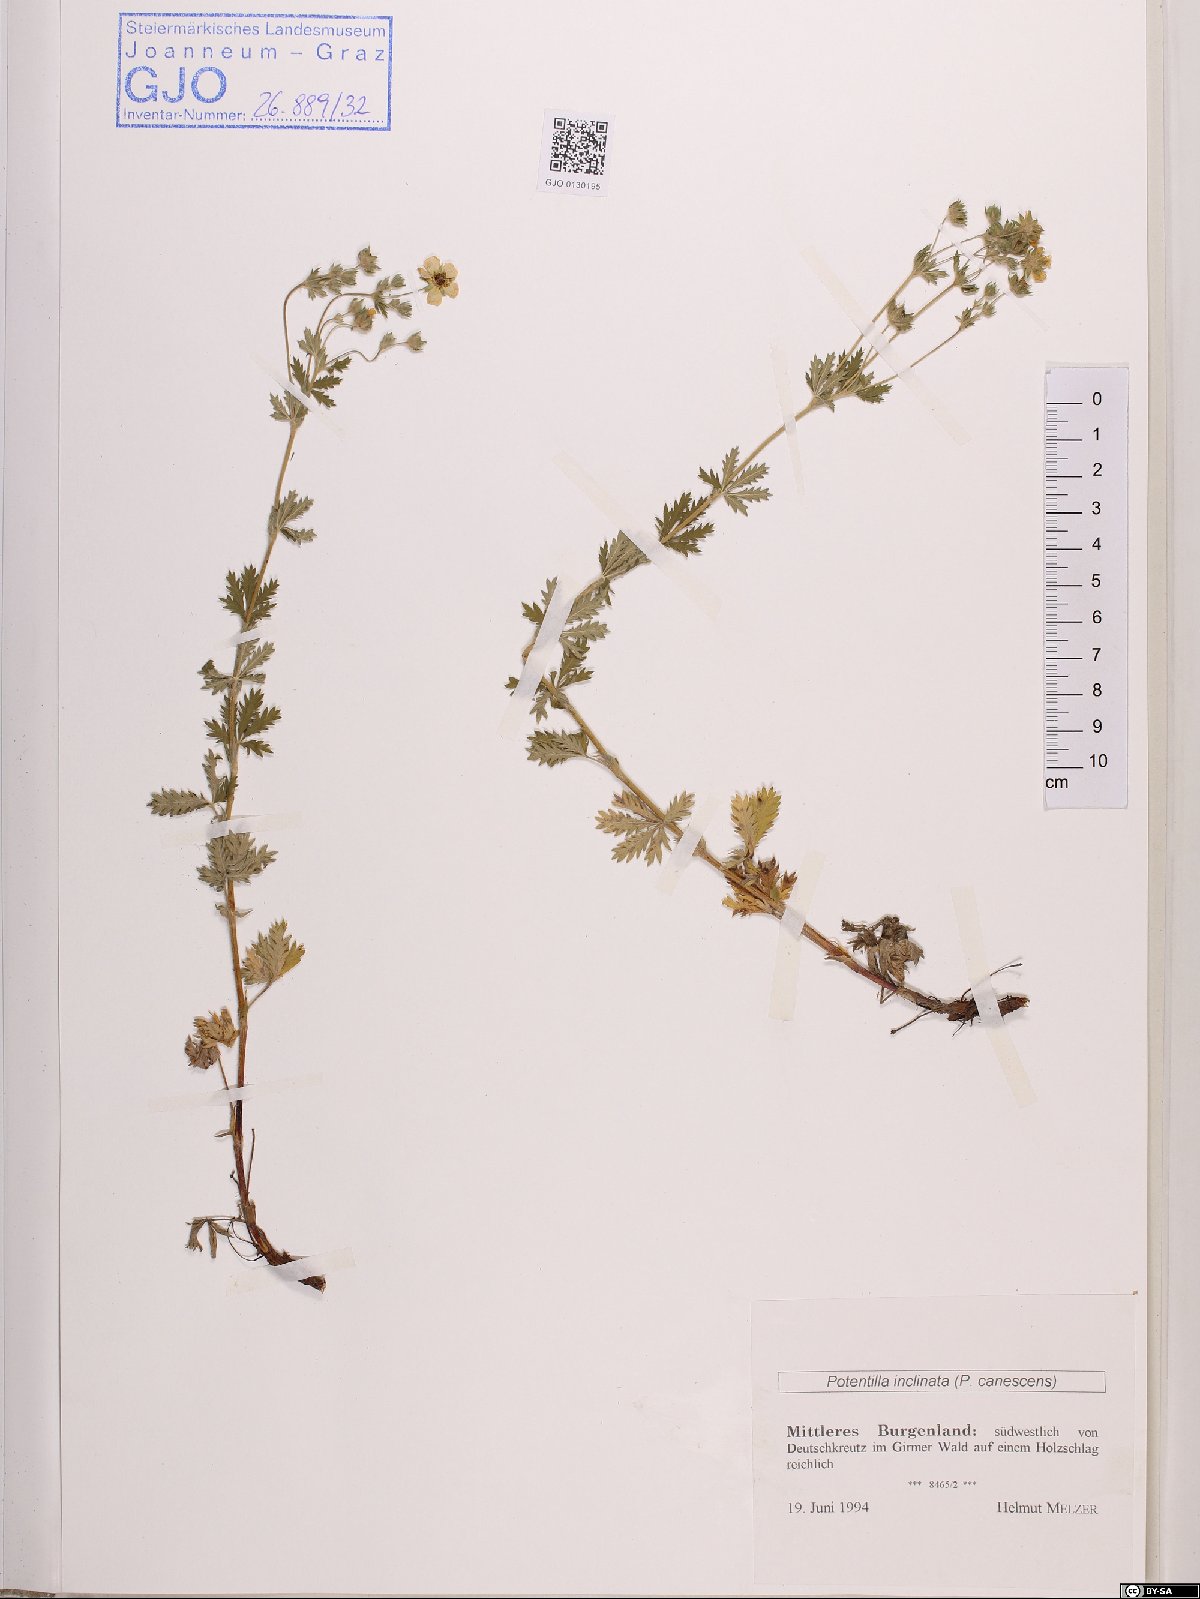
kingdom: Plantae
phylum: Tracheophyta
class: Magnoliopsida
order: Rosales
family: Rosaceae
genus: Potentilla
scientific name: Potentilla inclinata
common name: Grey cinquefoil
